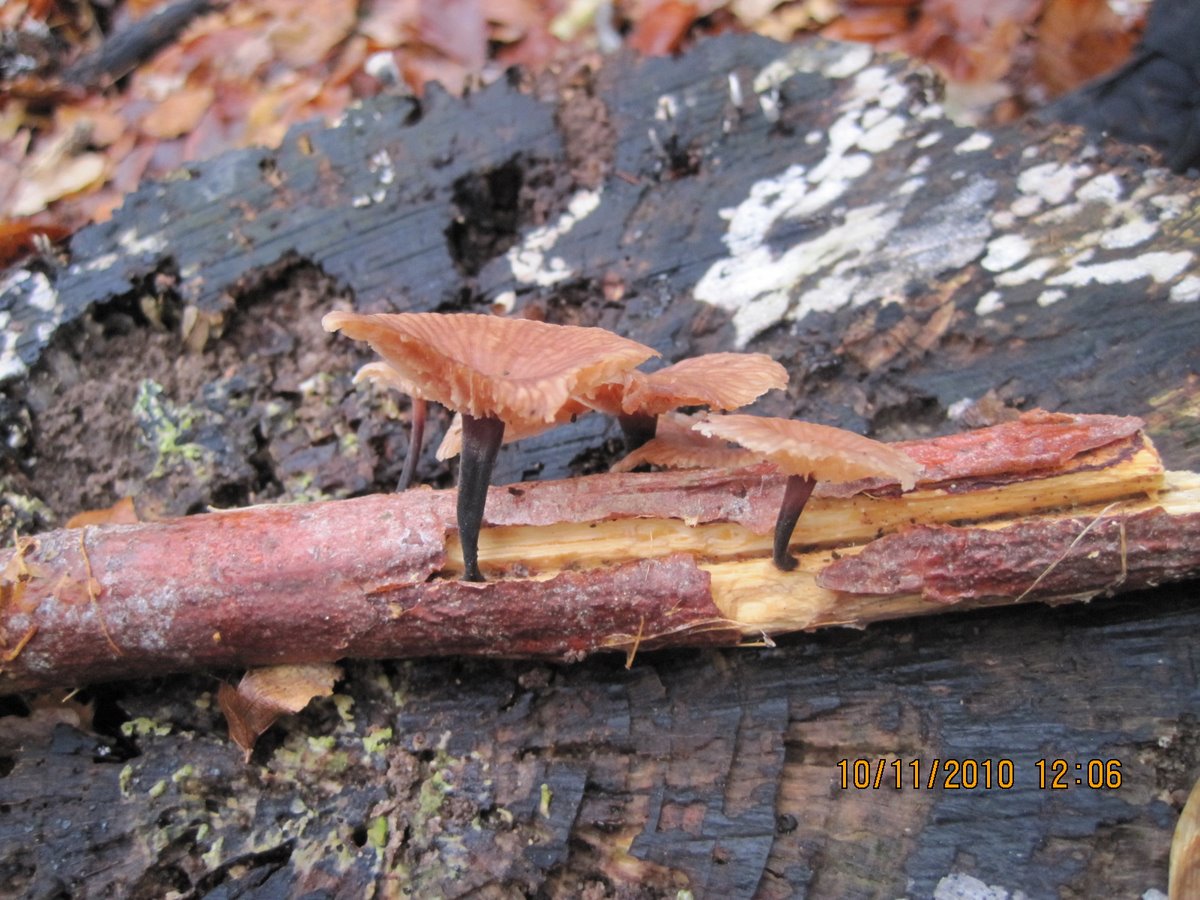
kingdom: Fungi
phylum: Basidiomycota
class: Agaricomycetes
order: Agaricales
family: Omphalotaceae
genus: Gymnopus
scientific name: Gymnopus foetidus
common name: stinkende fladhat
